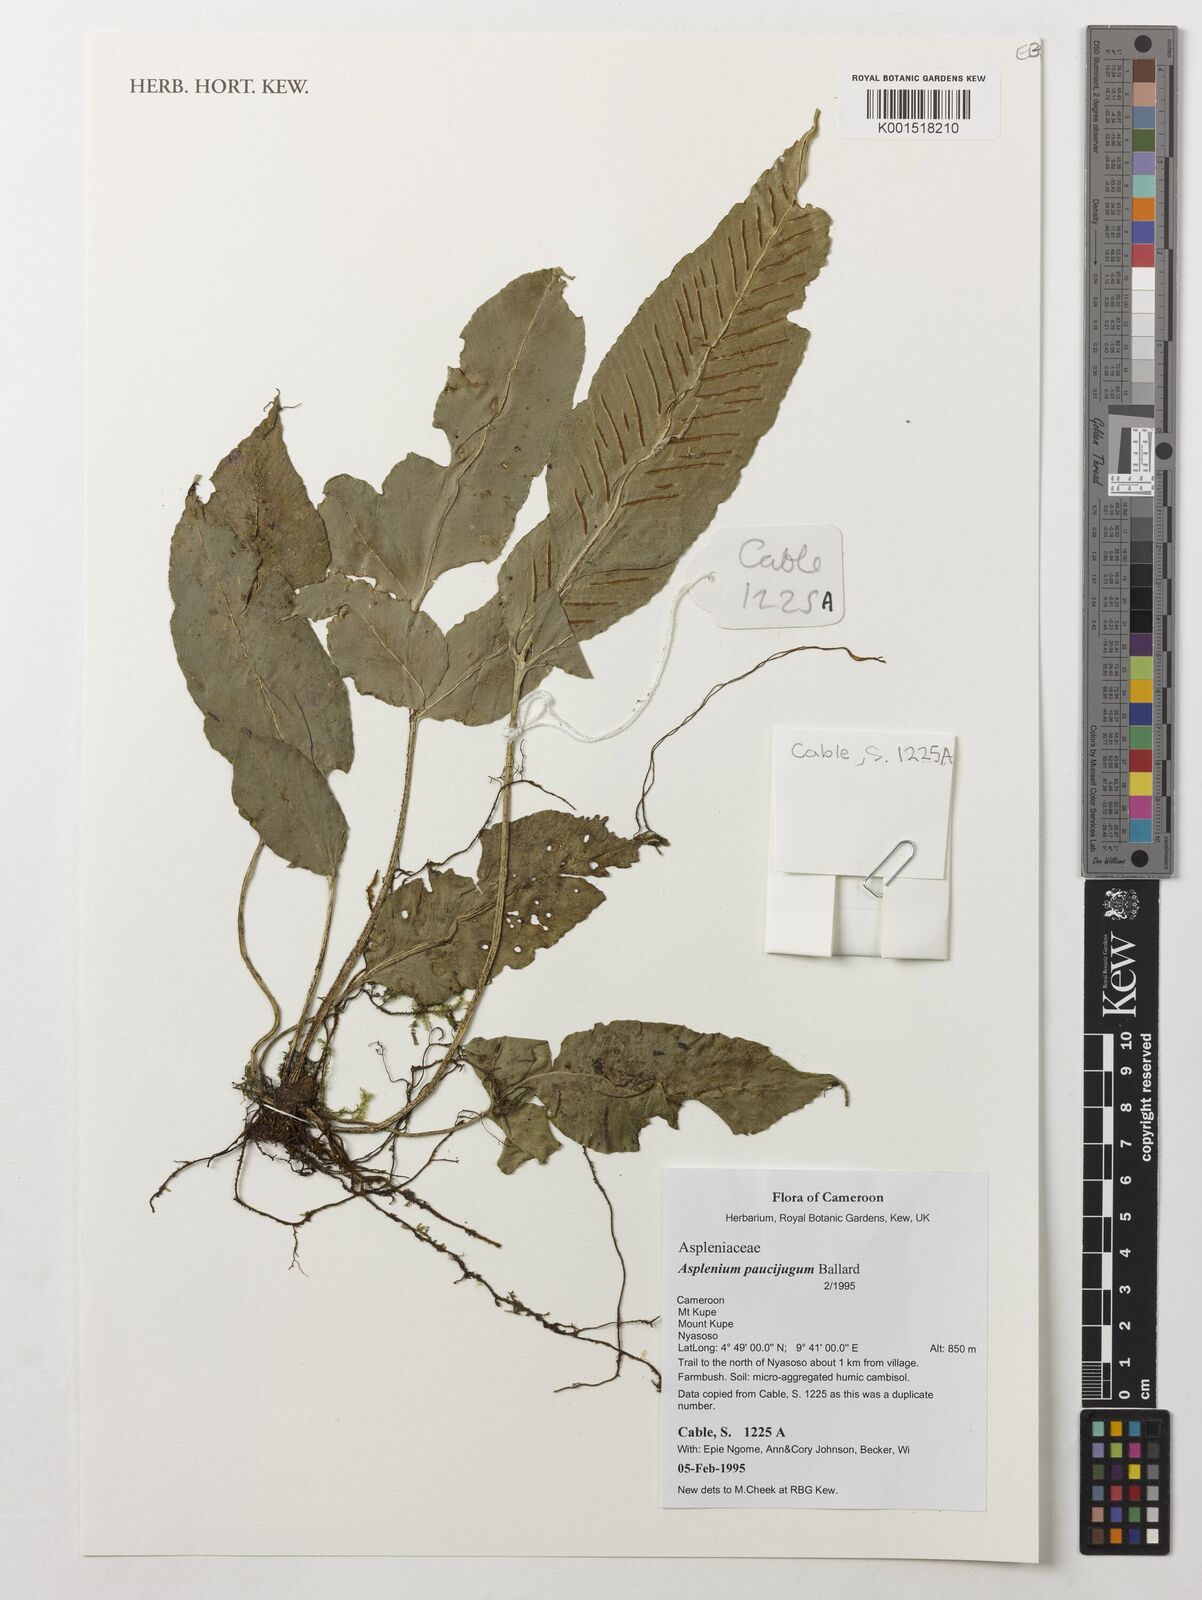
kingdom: Plantae
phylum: Tracheophyta
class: Polypodiopsida
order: Polypodiales
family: Aspleniaceae
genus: Asplenium
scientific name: Asplenium variabile
